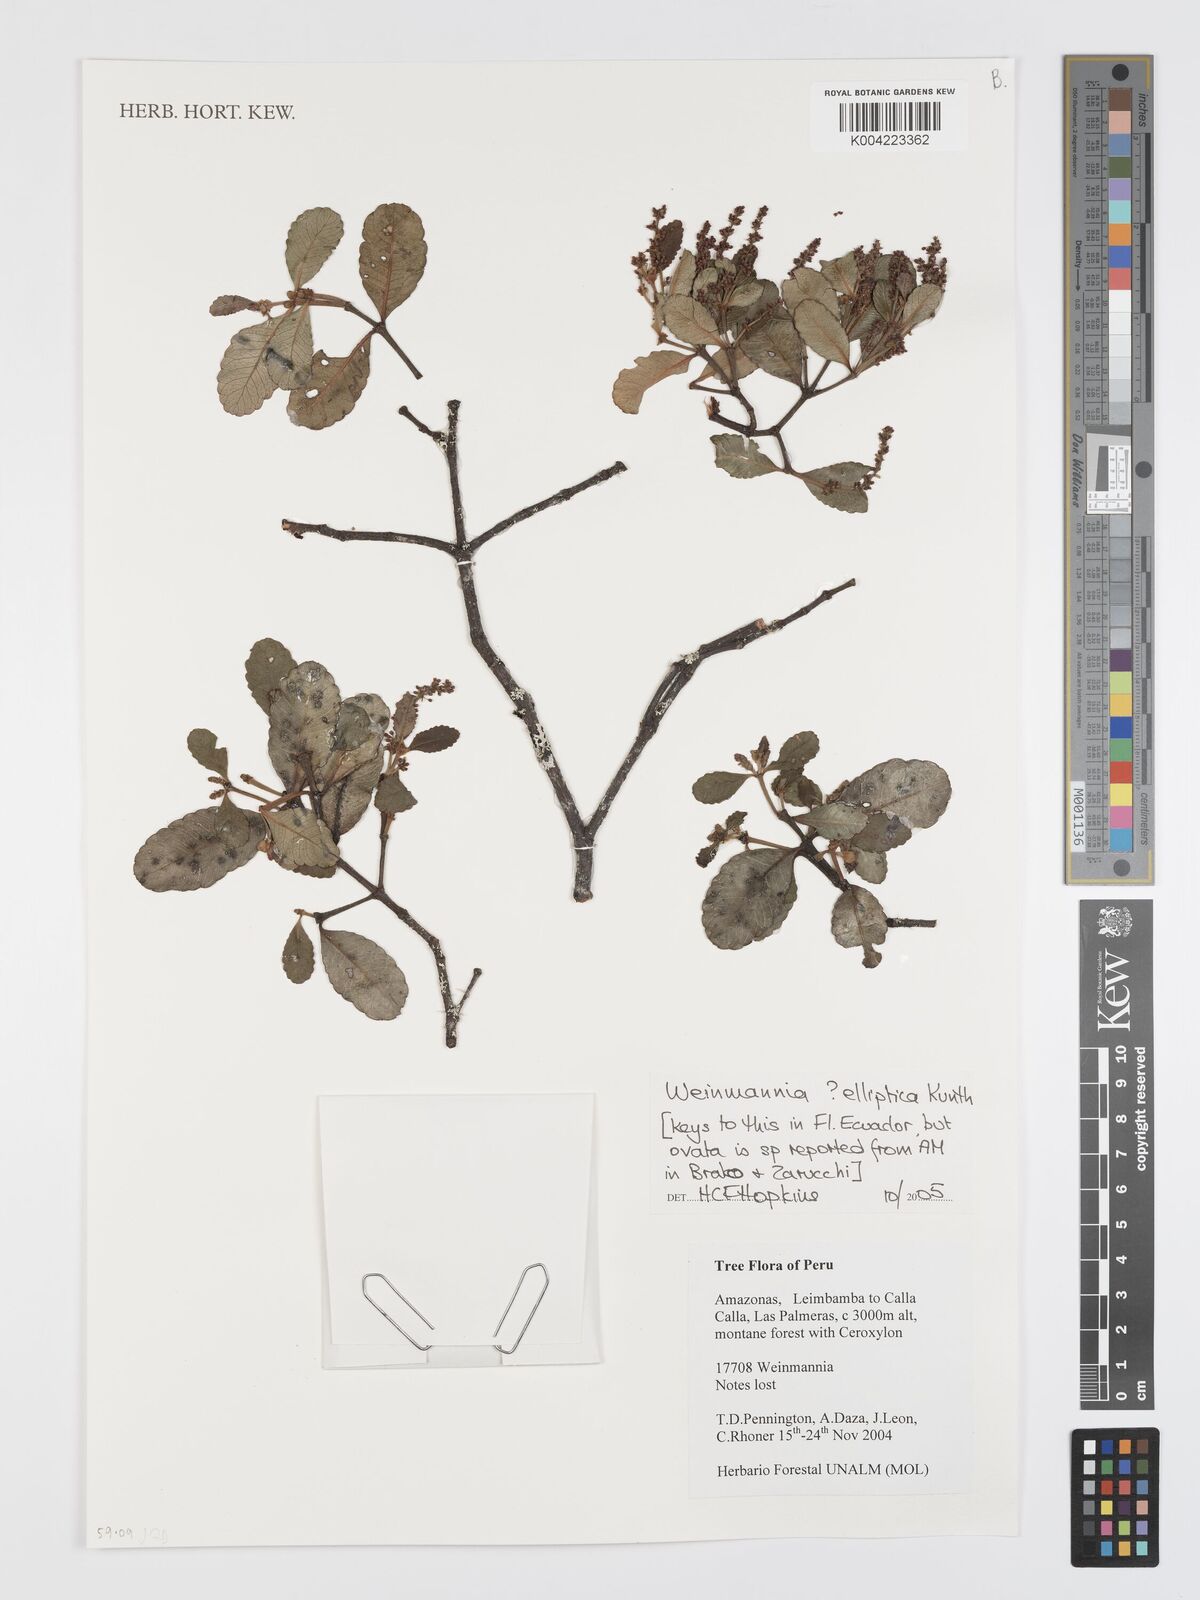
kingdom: Plantae
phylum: Tracheophyta
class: Magnoliopsida
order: Oxalidales
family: Cunoniaceae
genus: Weinmannia
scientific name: Weinmannia elliptica
